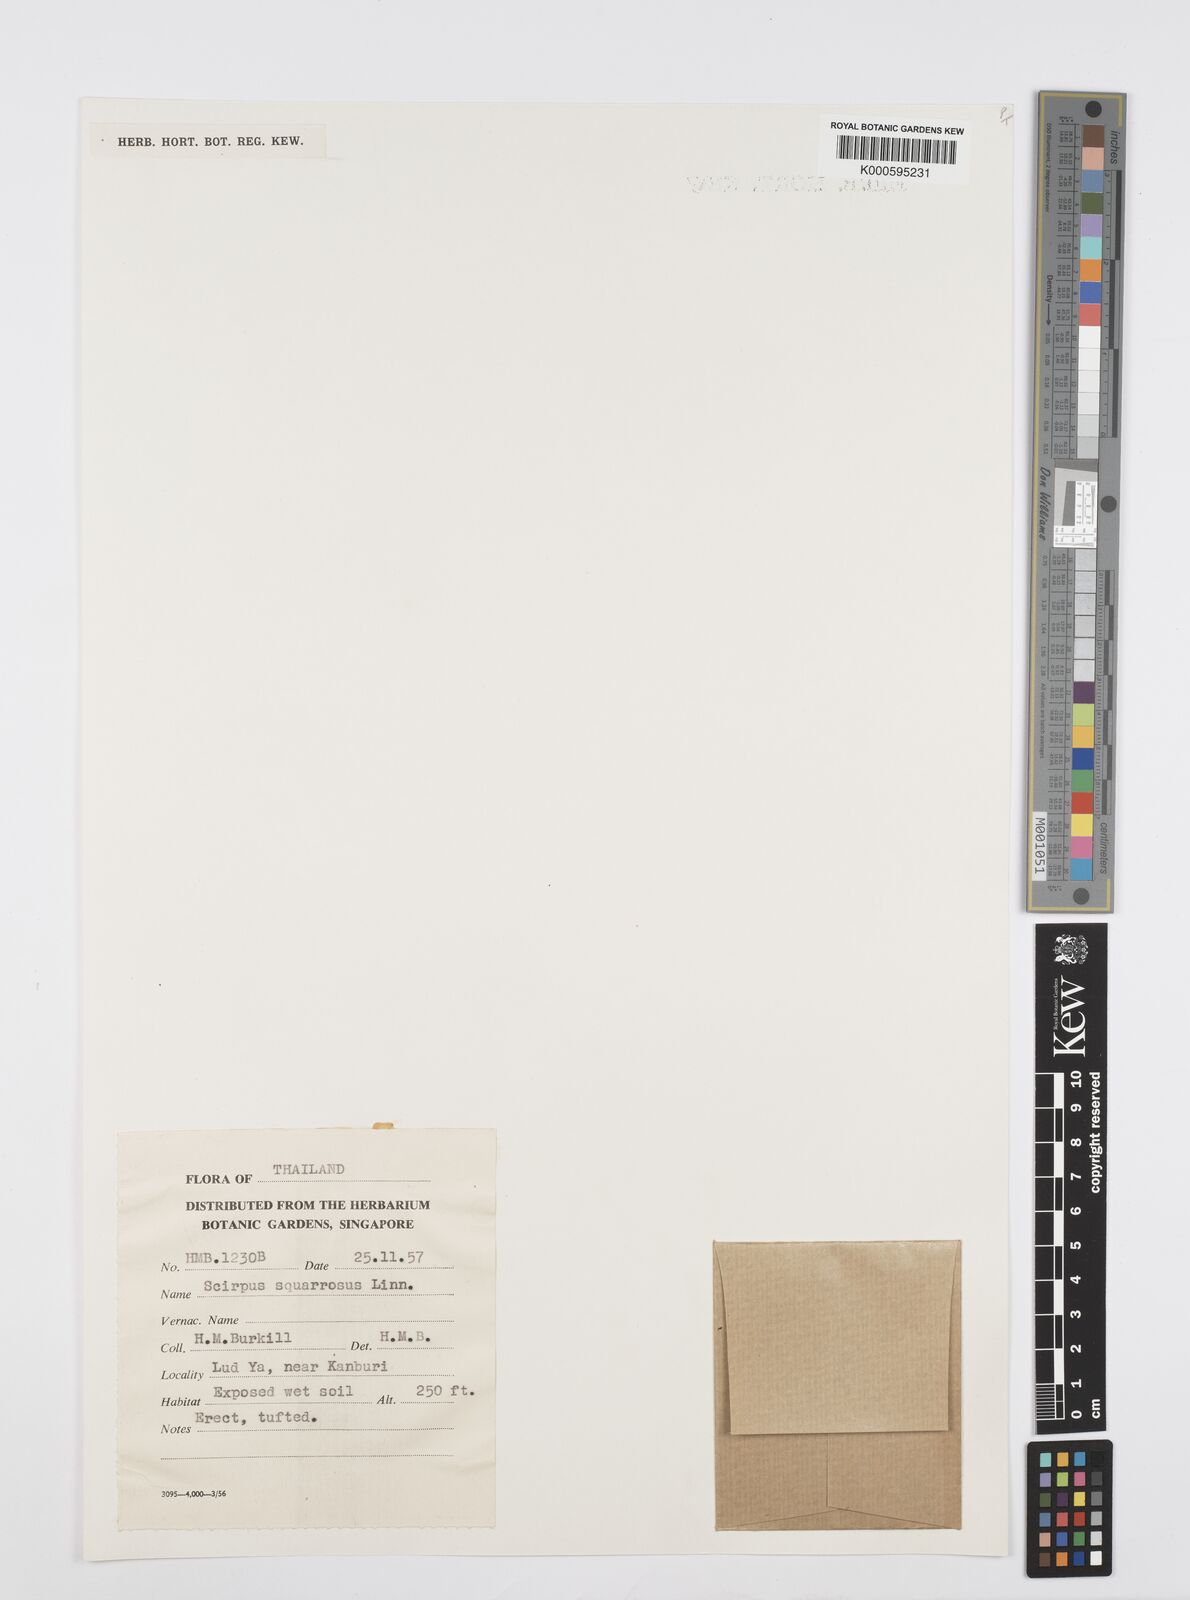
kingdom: Plantae
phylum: Tracheophyta
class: Liliopsida
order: Poales
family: Cyperaceae
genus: Cyperus
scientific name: Cyperus neochinensis
